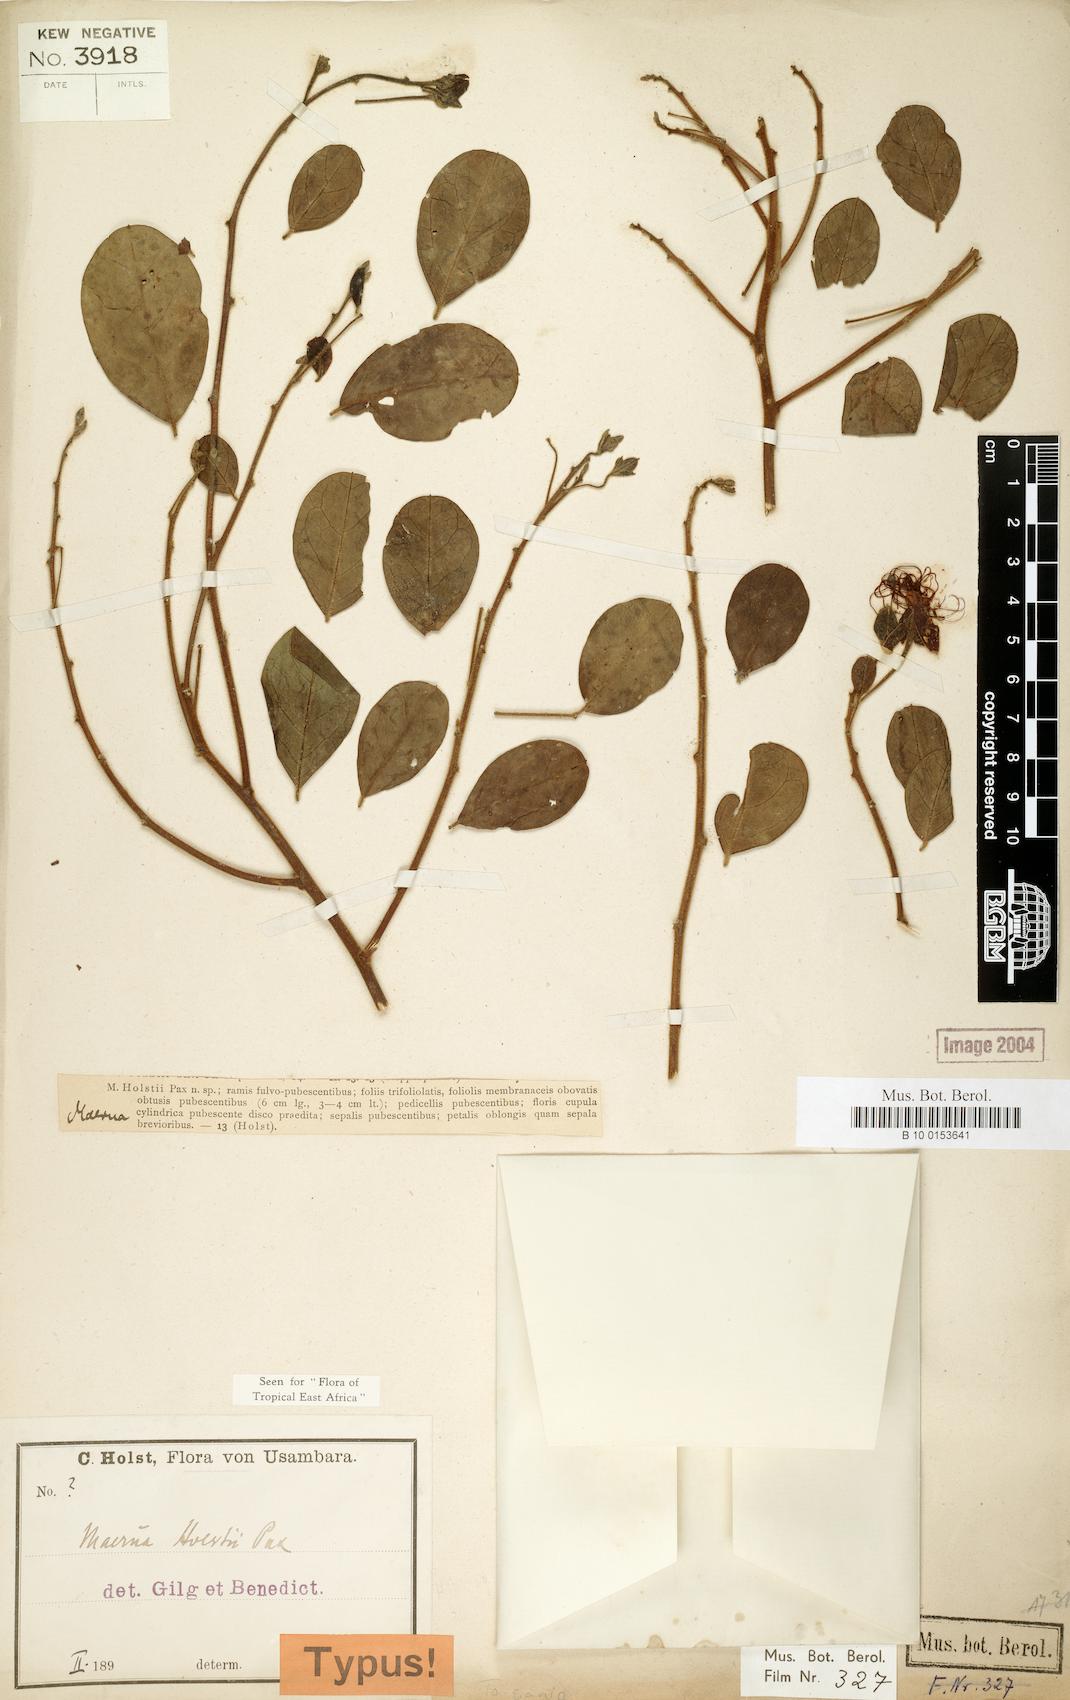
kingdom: Plantae
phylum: Tracheophyta
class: Magnoliopsida
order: Brassicales
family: Capparaceae
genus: Maerua
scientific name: Maerua holstii
